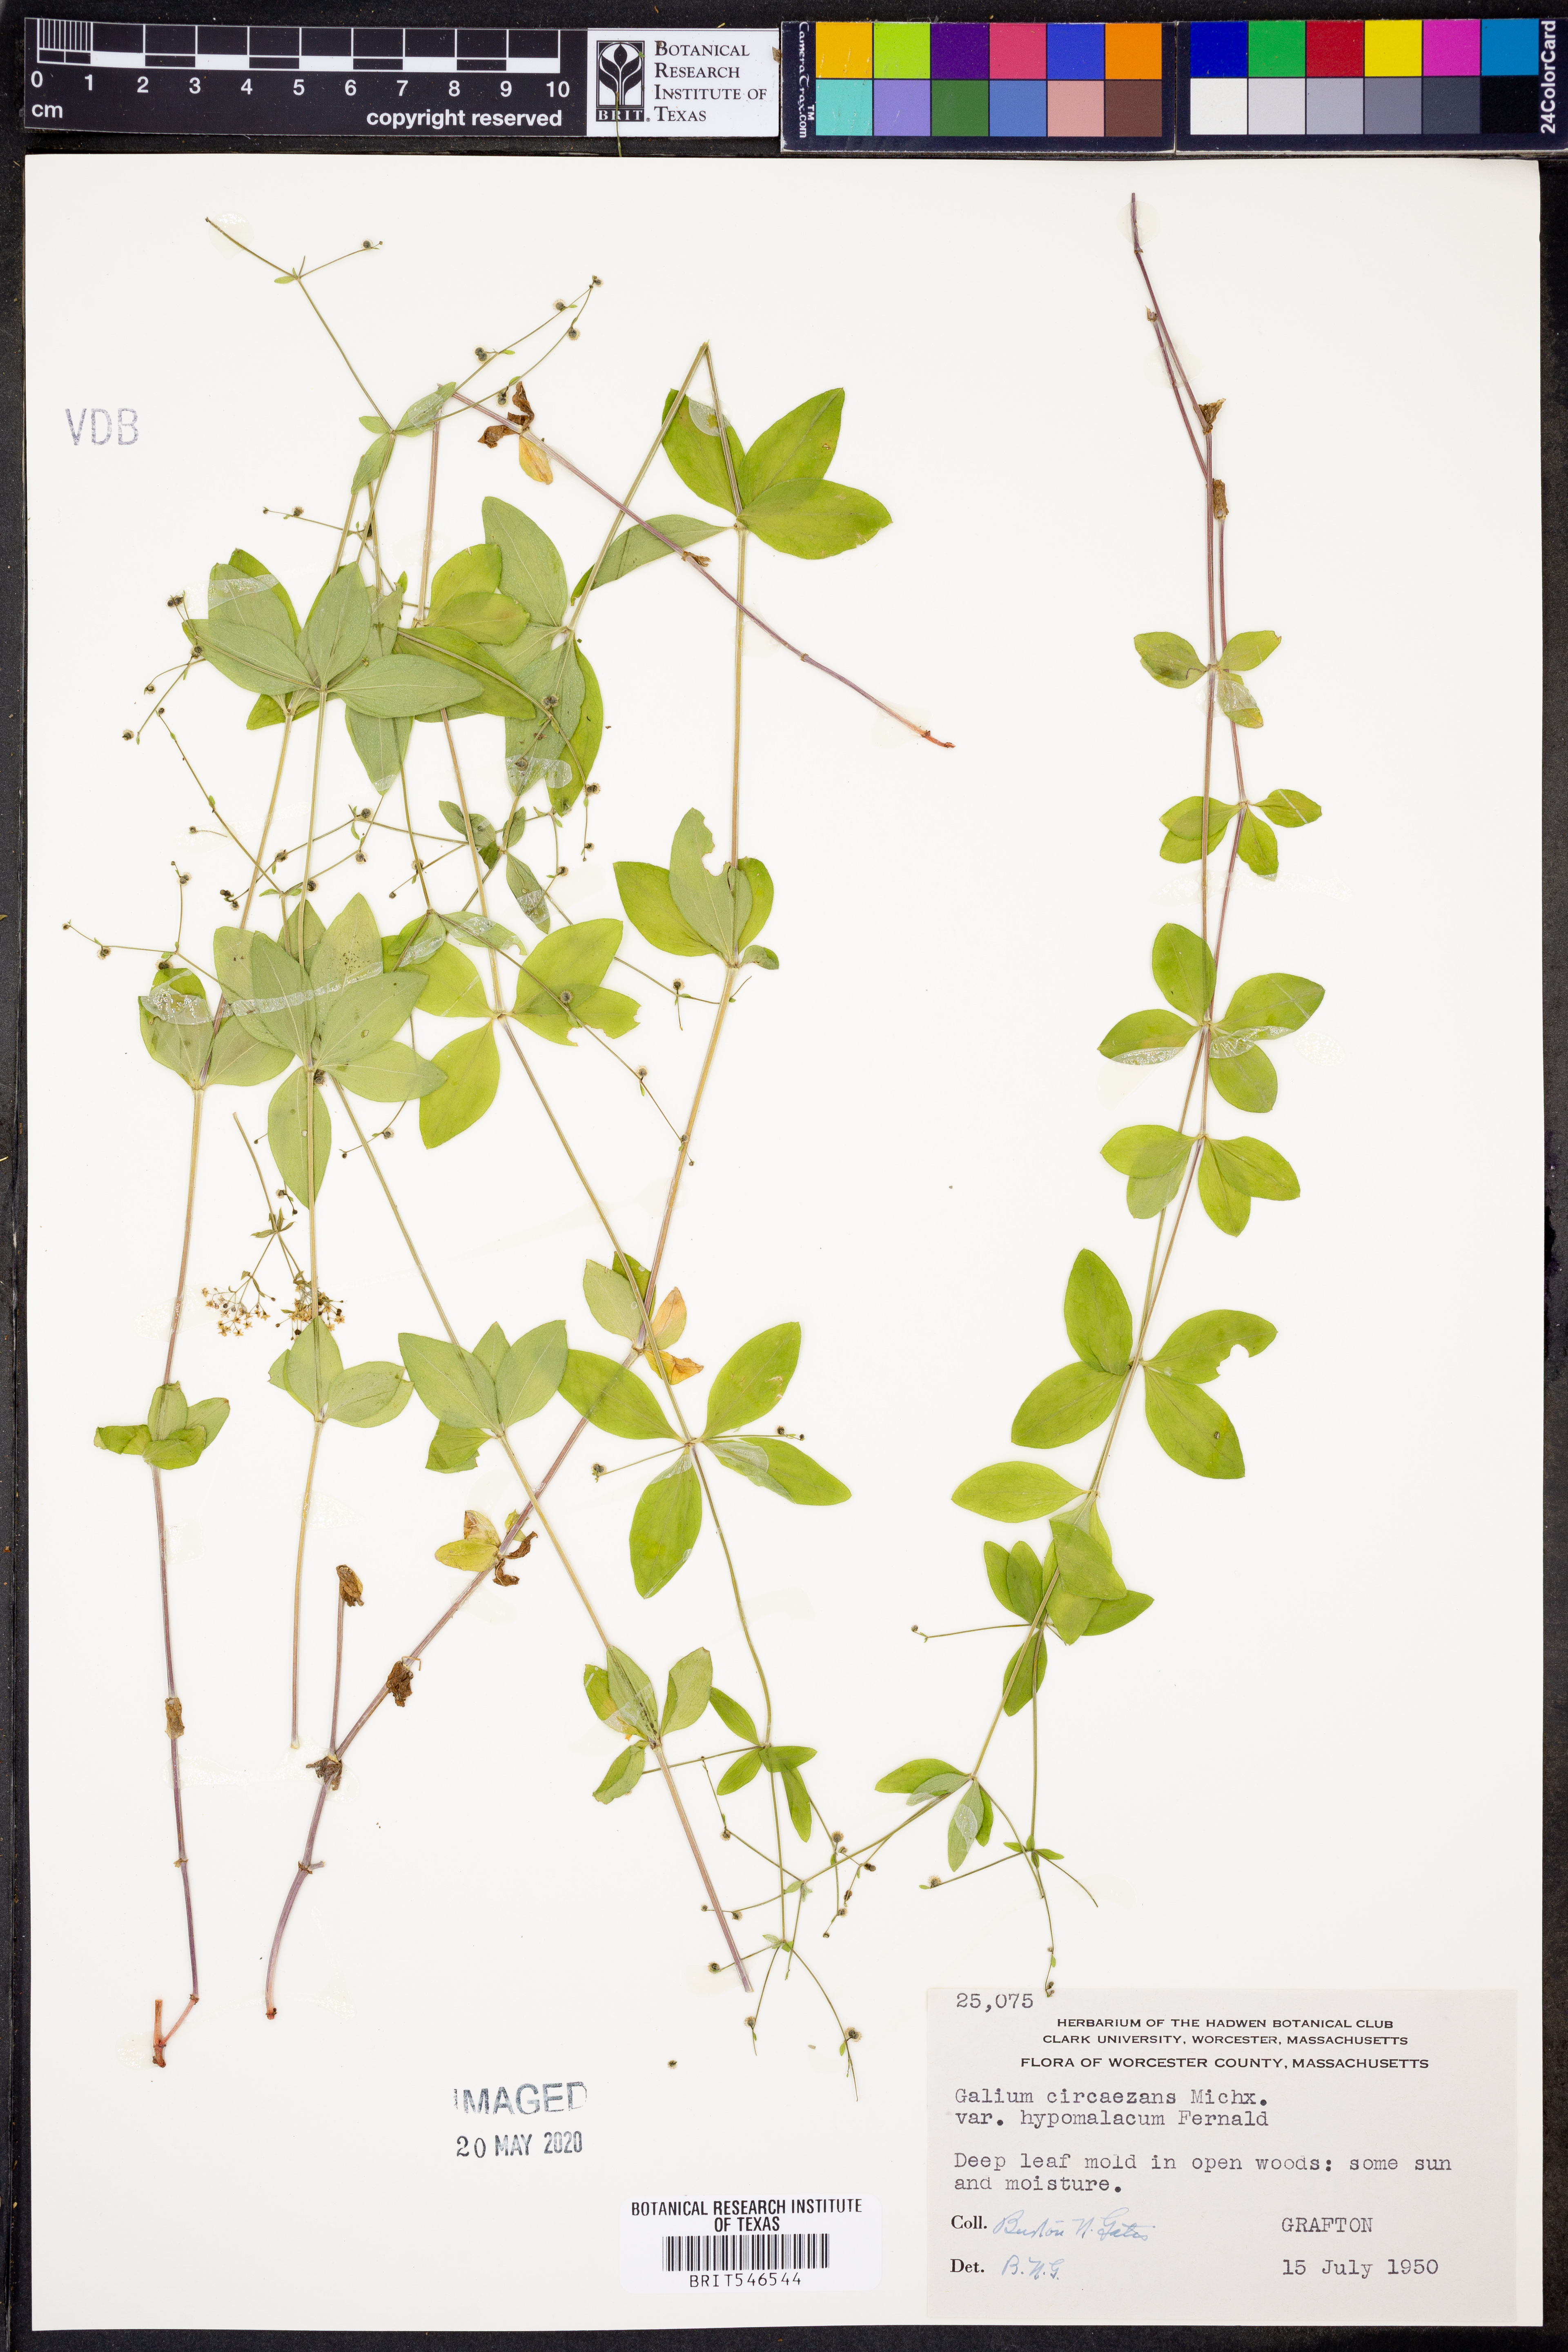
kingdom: Plantae
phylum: Tracheophyta
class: Magnoliopsida
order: Gentianales
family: Rubiaceae
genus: Galium
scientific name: Galium circaezans
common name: Forest bedstraw
